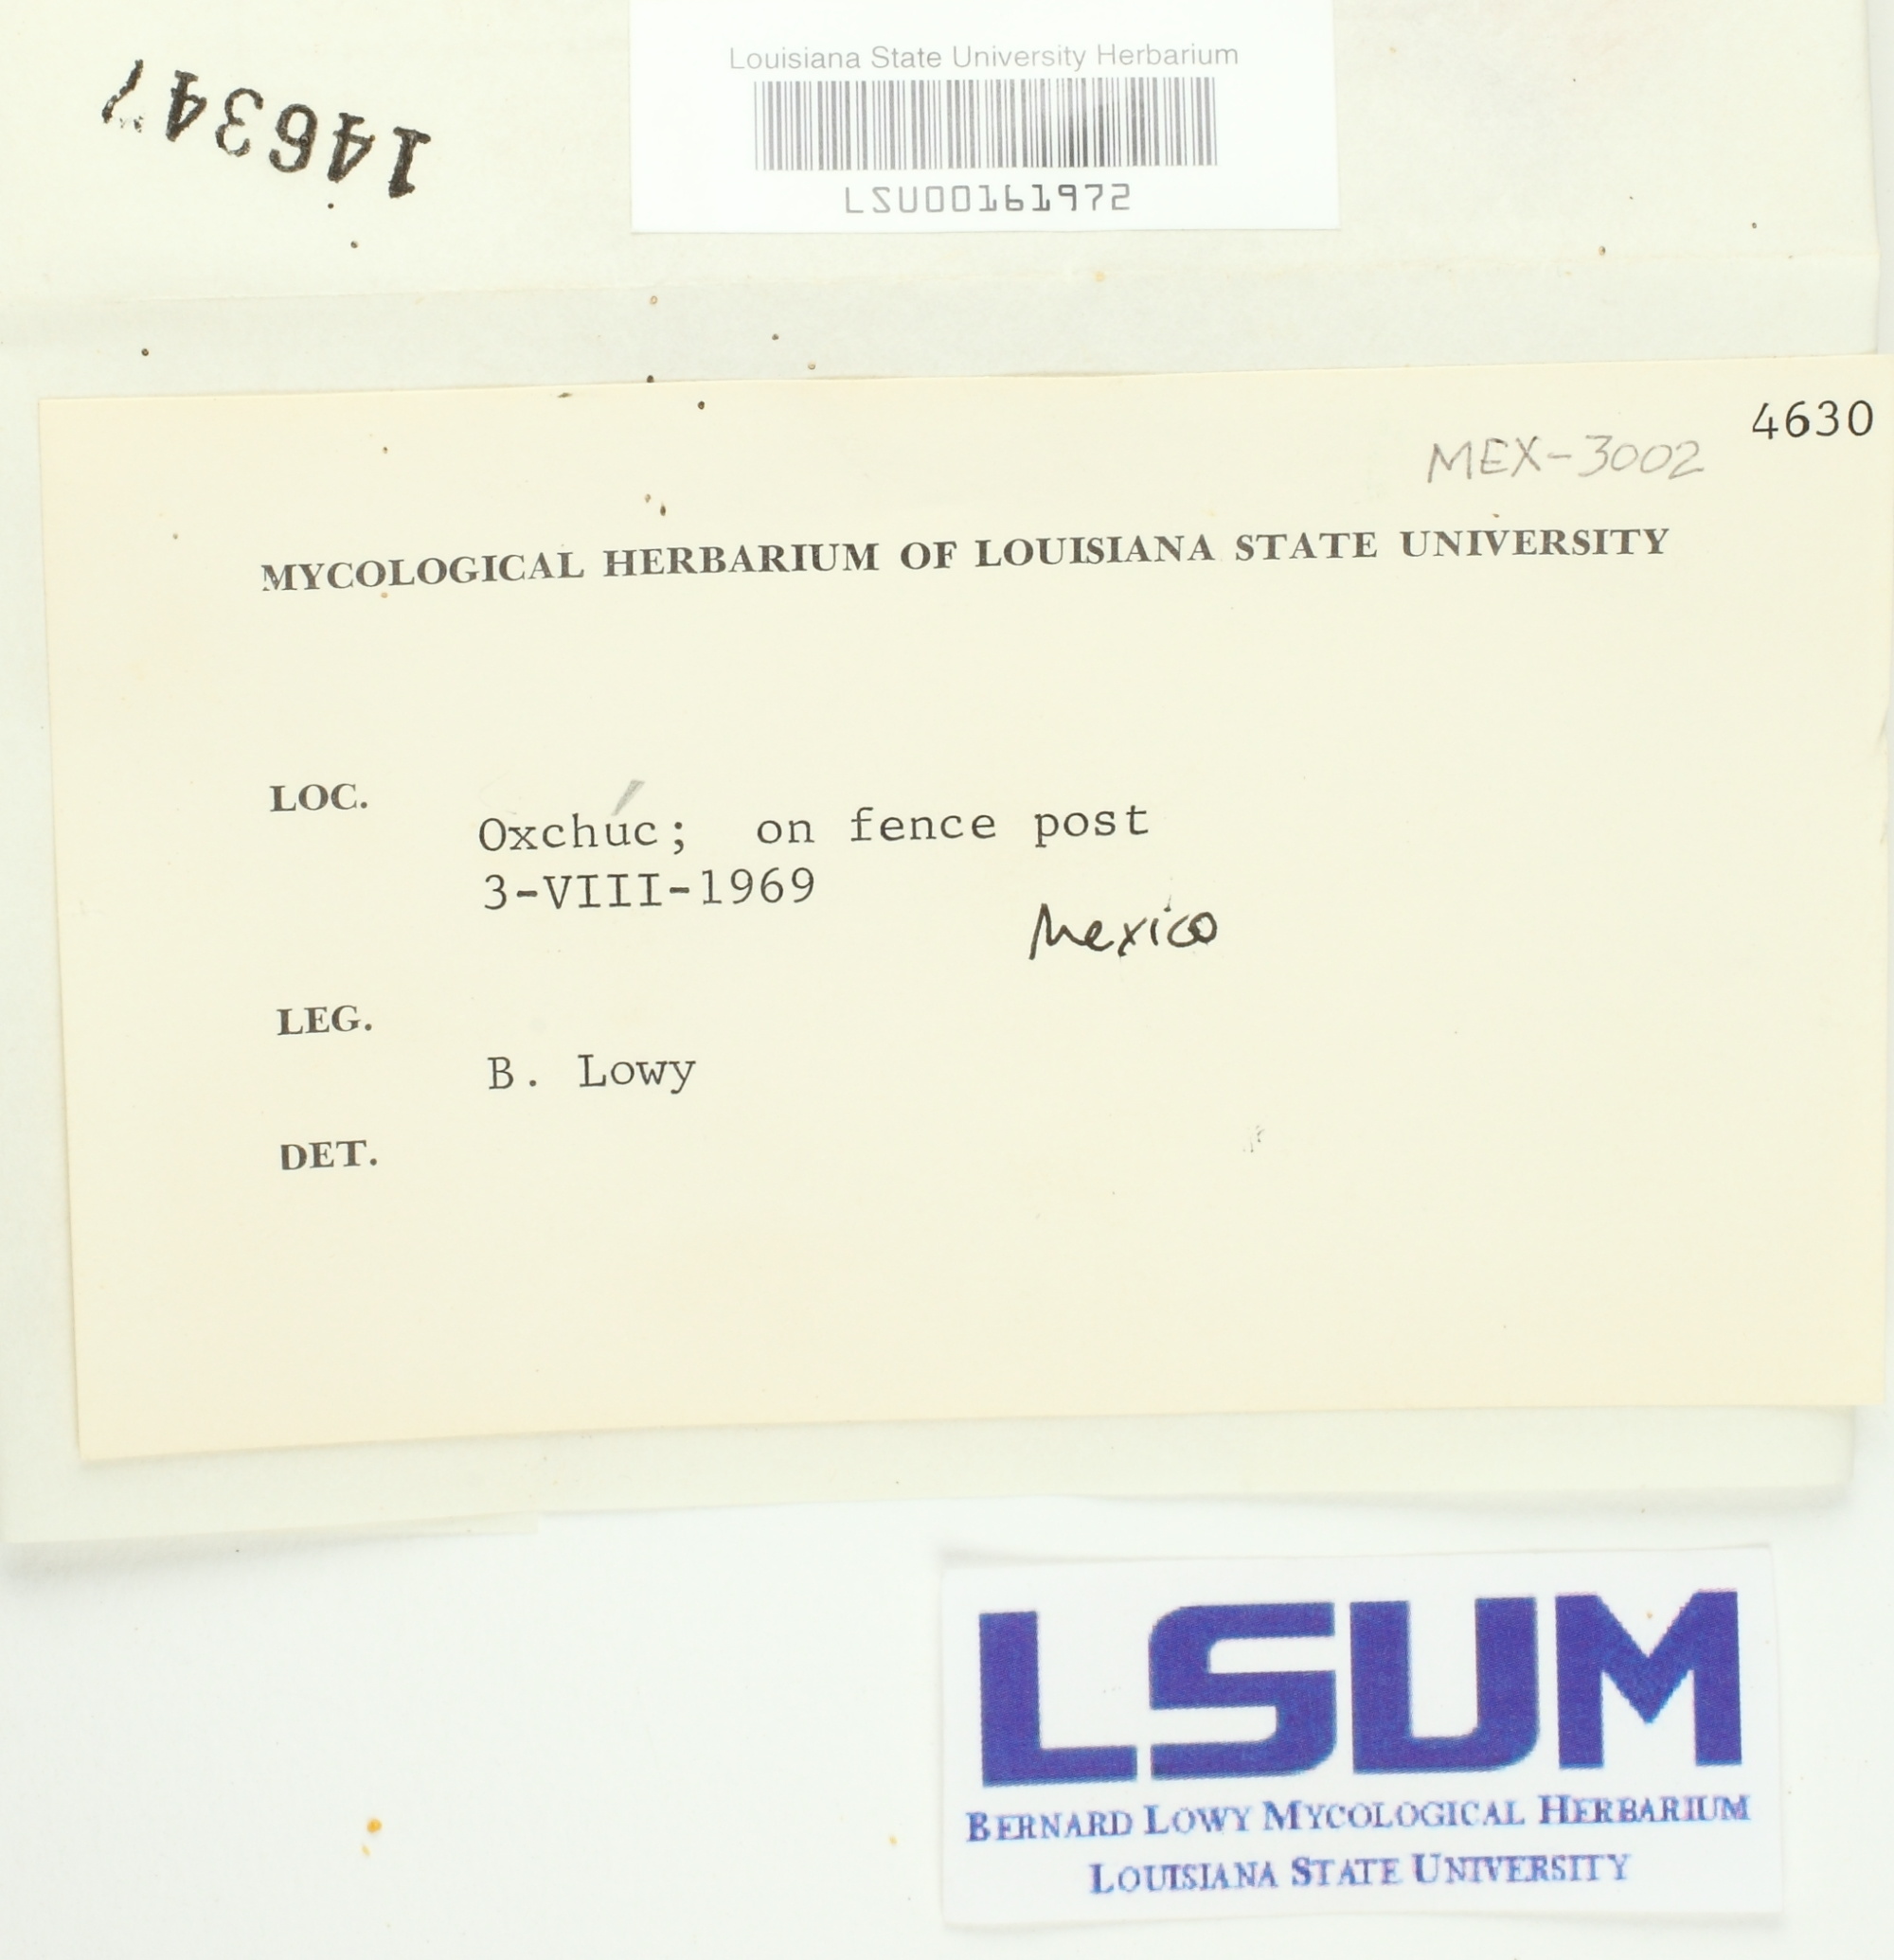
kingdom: Fungi
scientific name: Fungi
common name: Fungi
